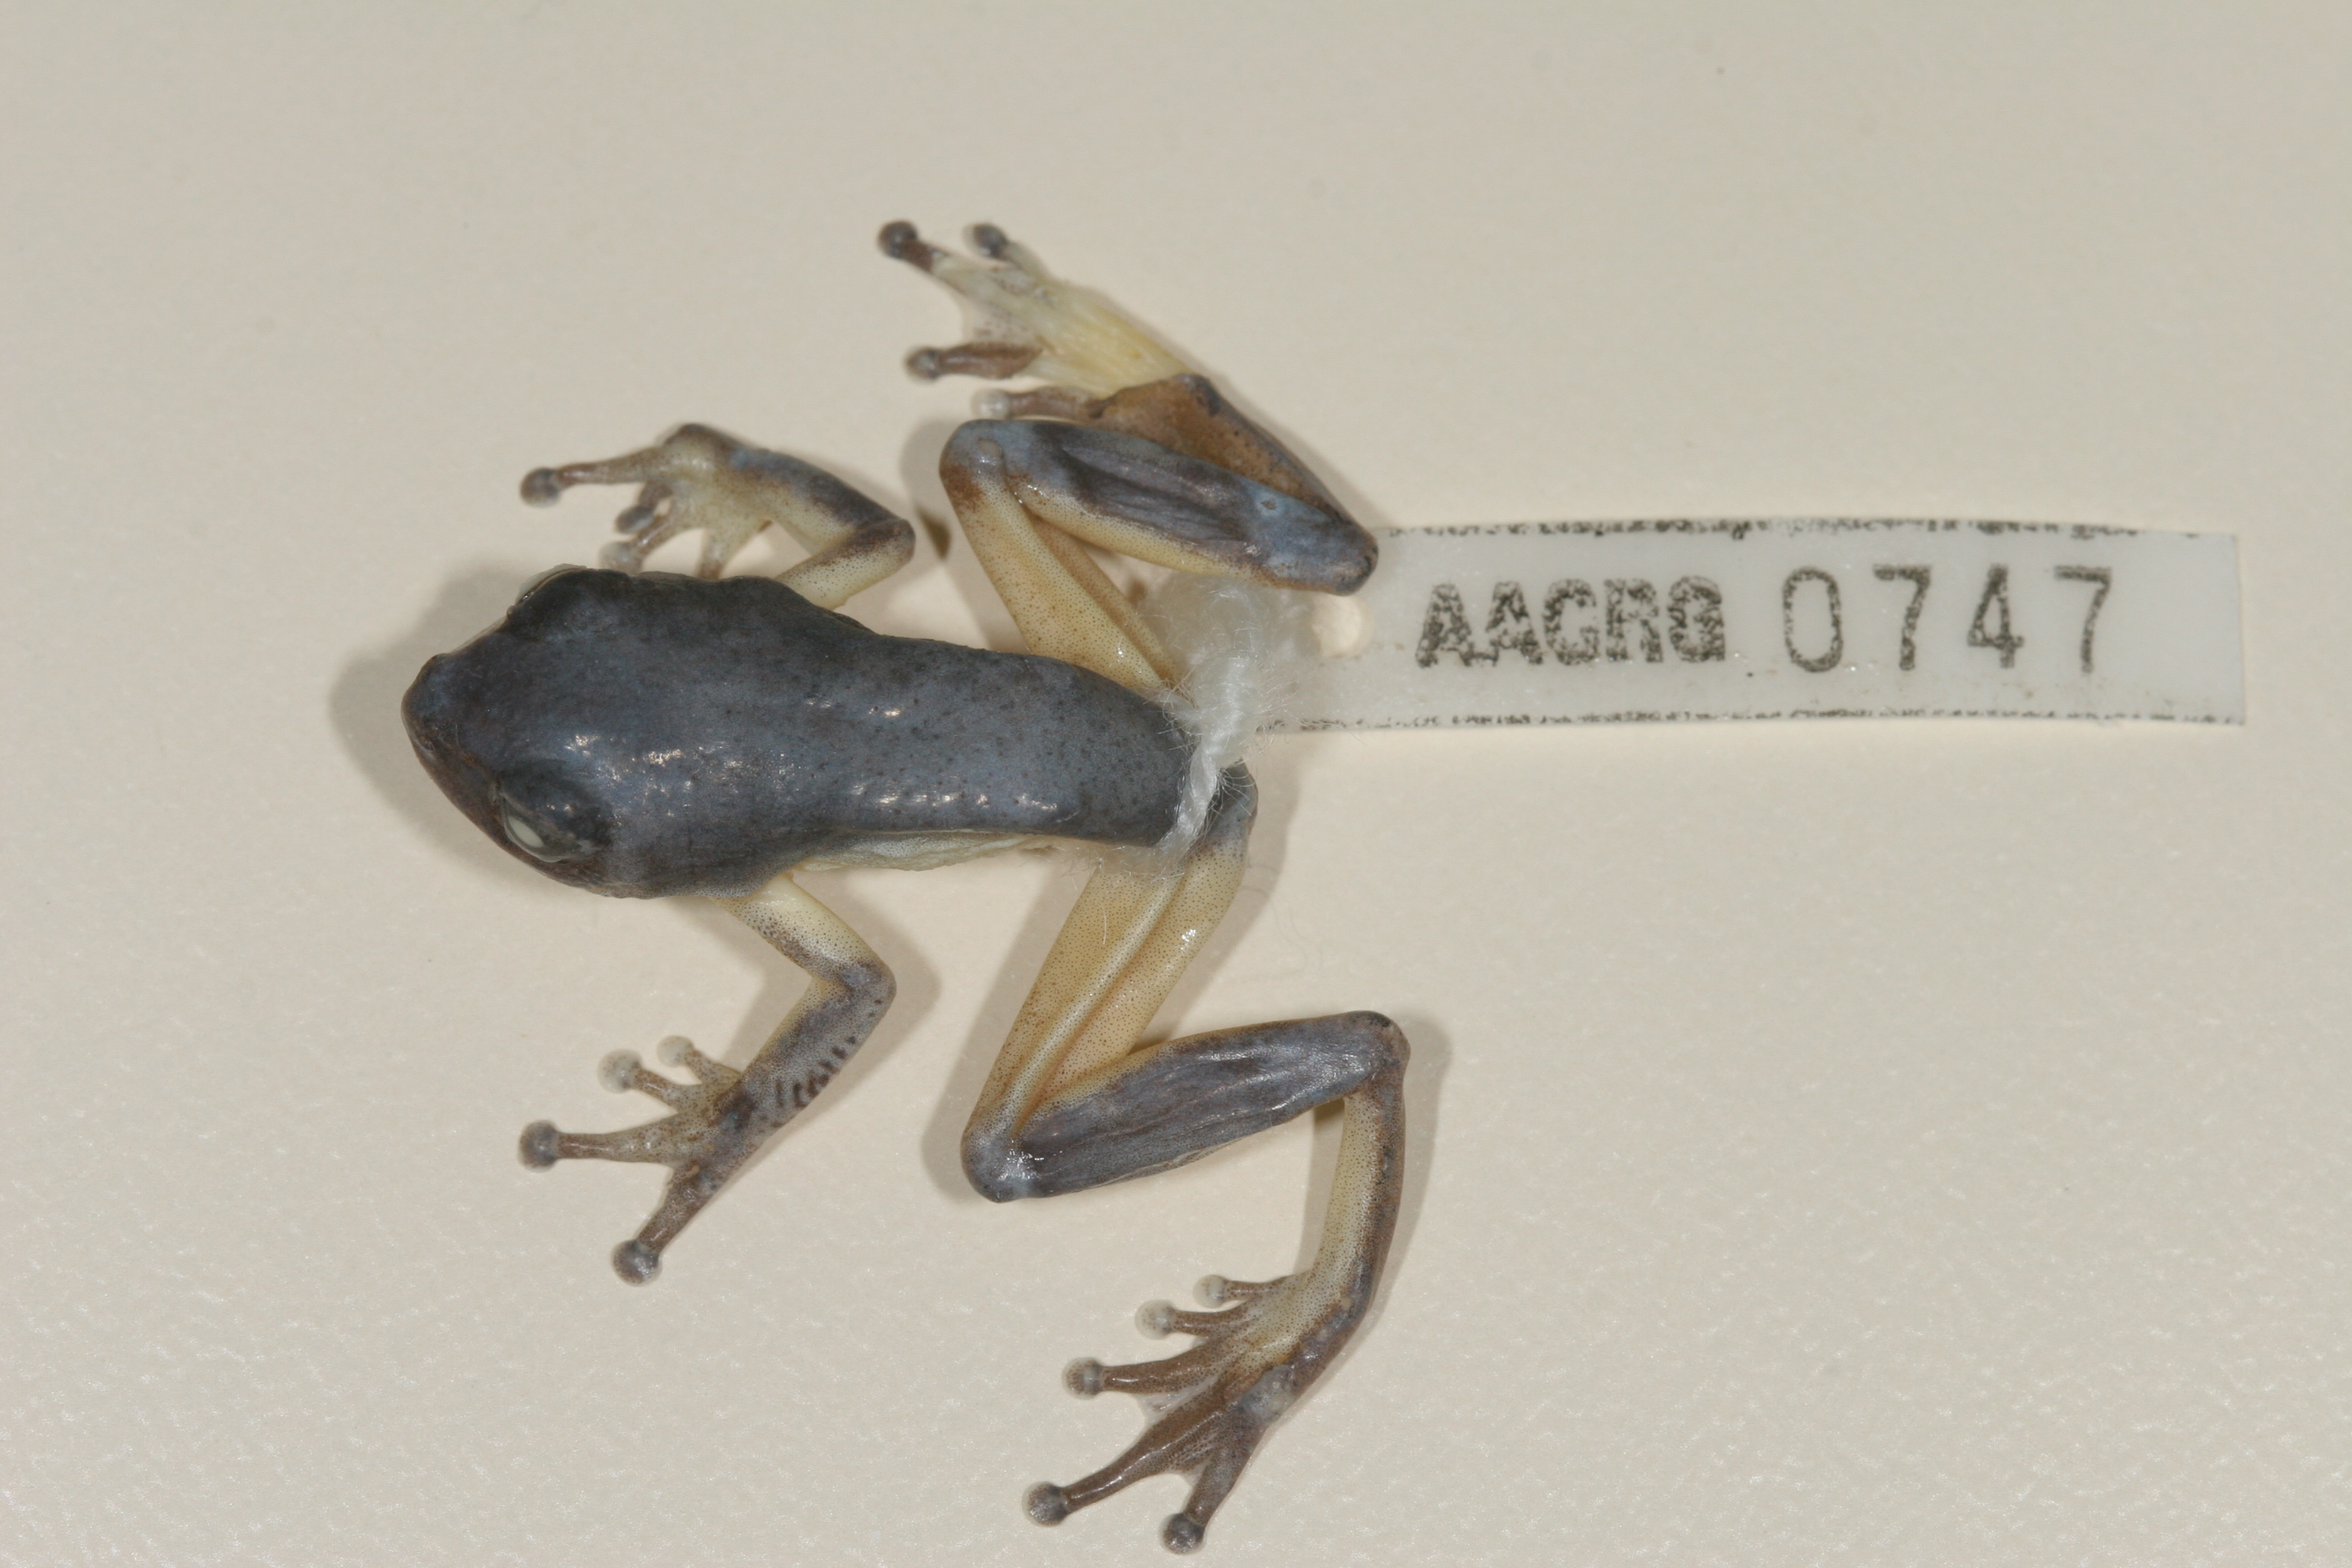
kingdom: Animalia
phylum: Chordata
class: Amphibia
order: Anura
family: Hyperoliidae
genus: Hyperolius
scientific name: Hyperolius tuberilinguis
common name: Tinker reed frog
